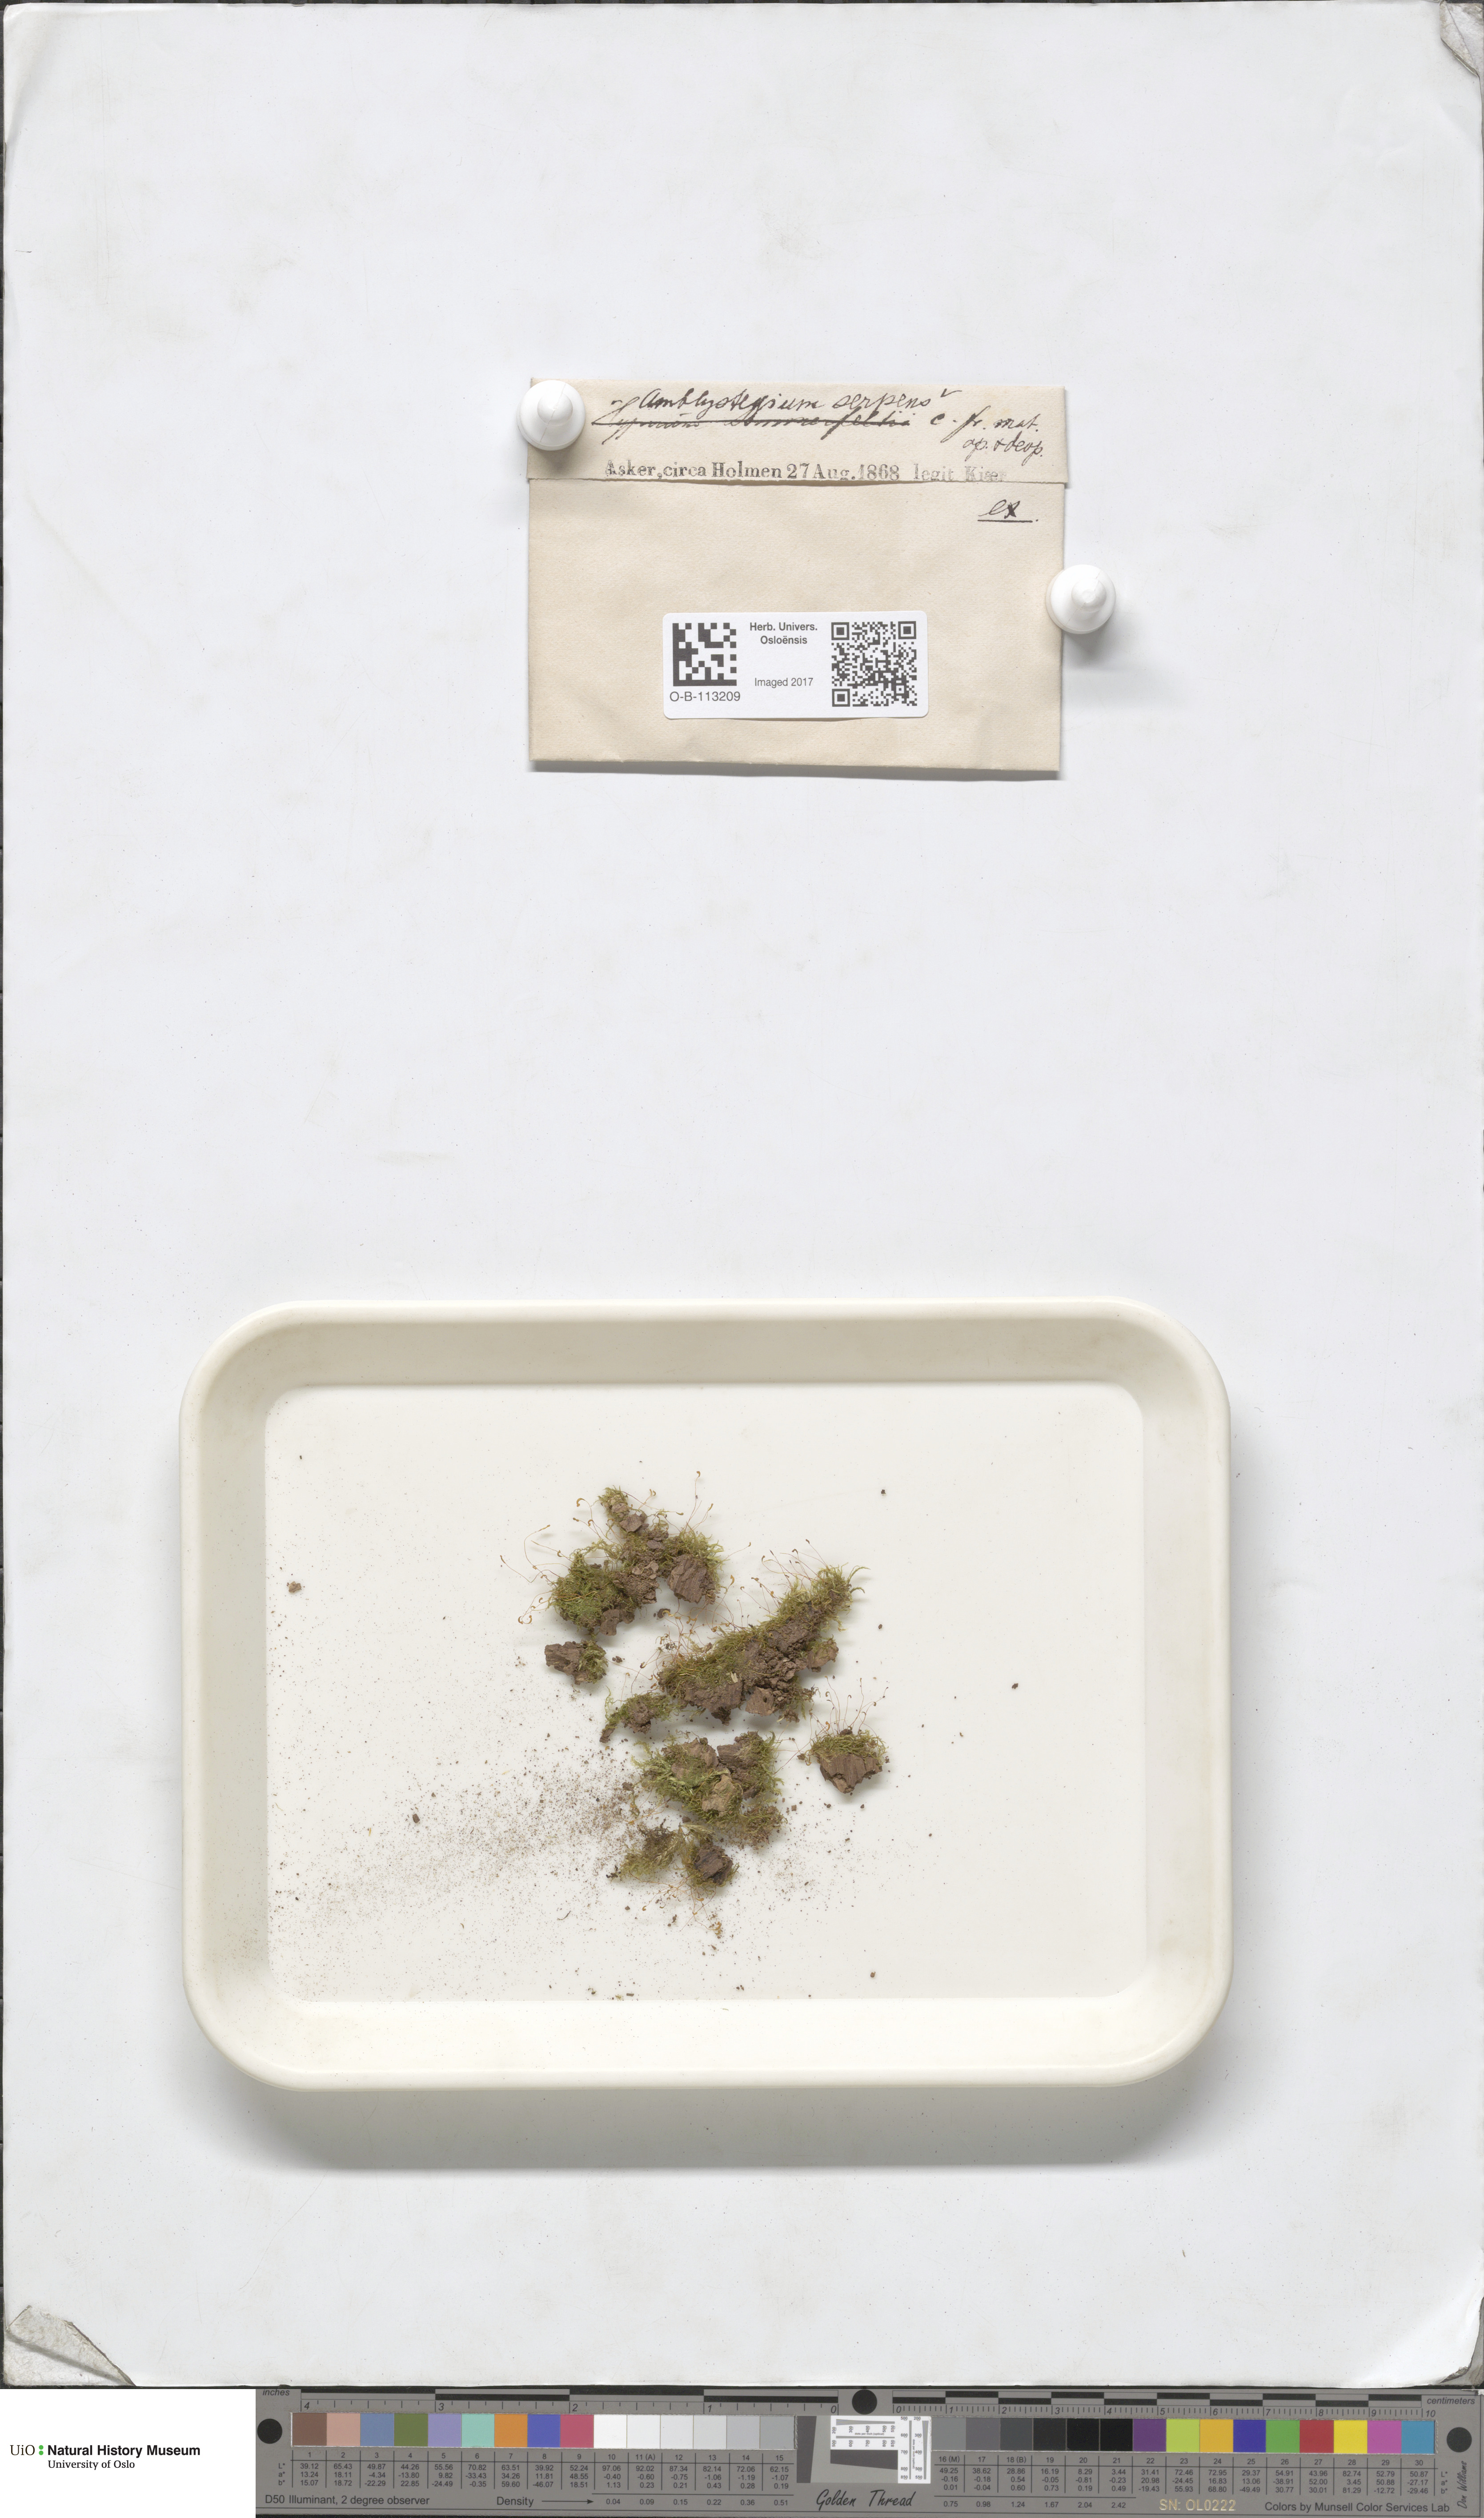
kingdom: Plantae
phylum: Bryophyta
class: Bryopsida
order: Hypnales
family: Amblystegiaceae
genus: Amblystegium
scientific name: Amblystegium serpens
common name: Jurkatzka's feather moss
